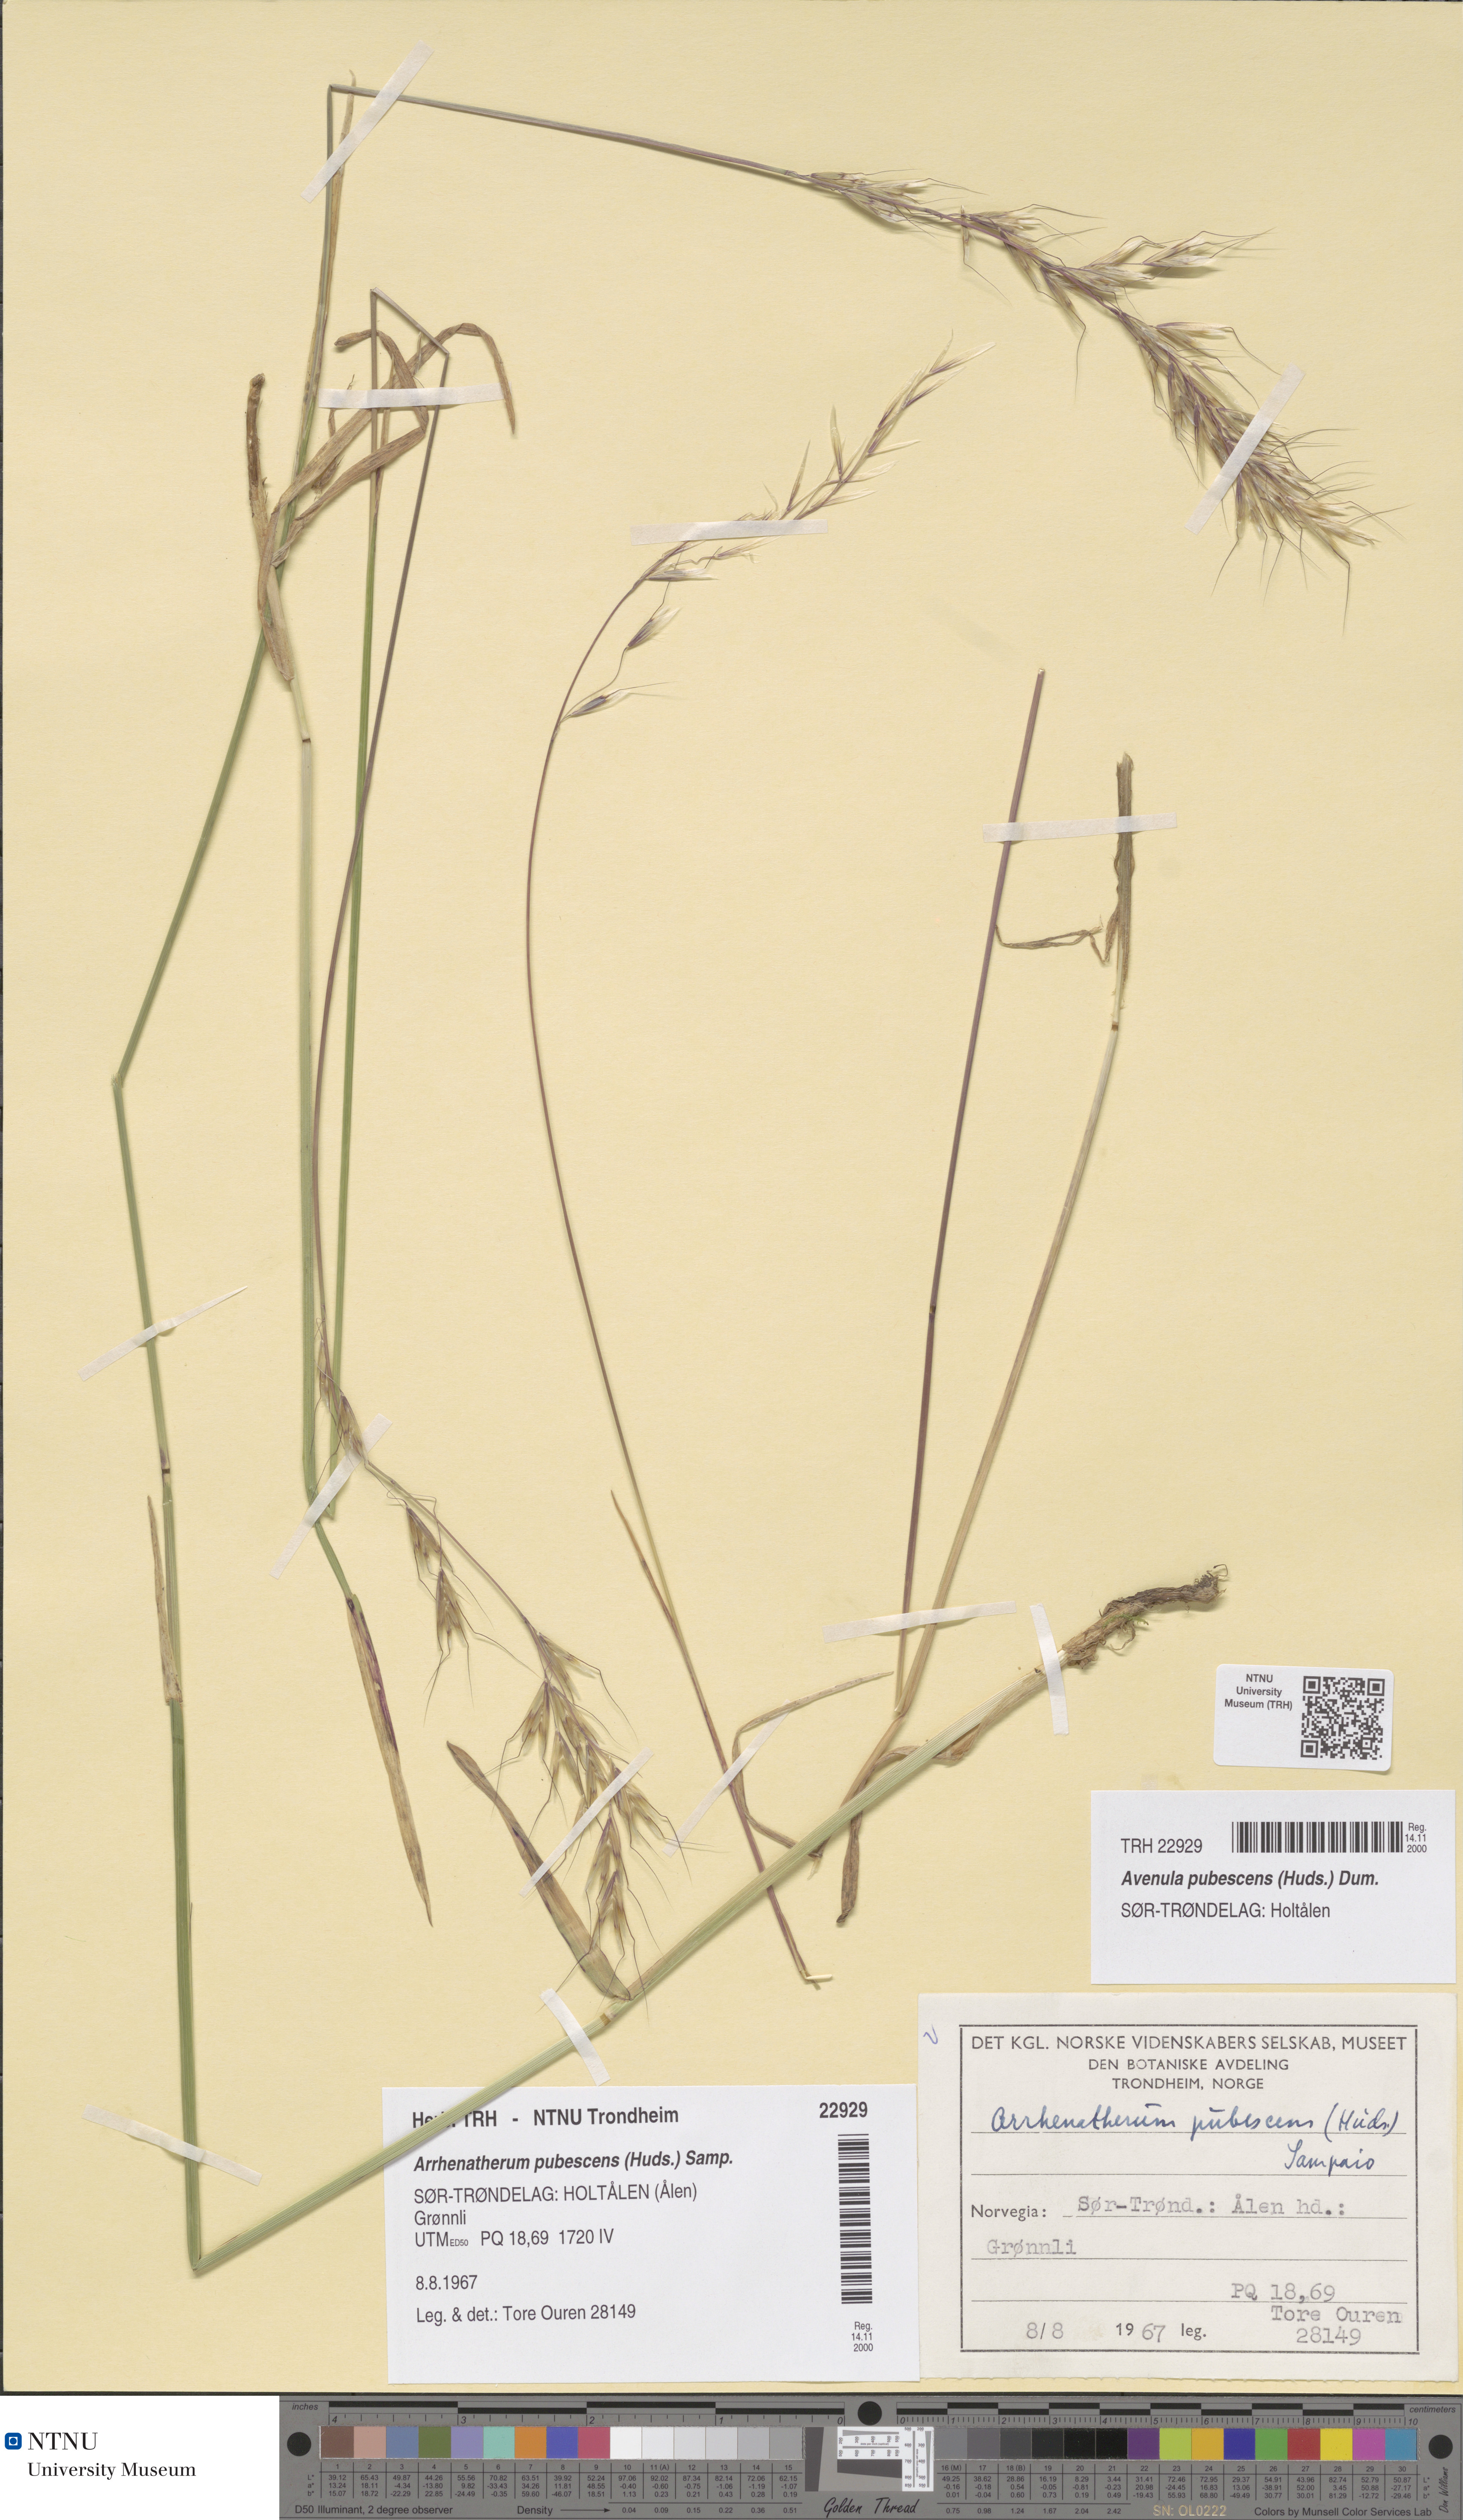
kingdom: Plantae
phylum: Tracheophyta
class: Liliopsida
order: Poales
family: Poaceae
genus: Avenula
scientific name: Avenula pubescens
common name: Downy alpine oatgrass
